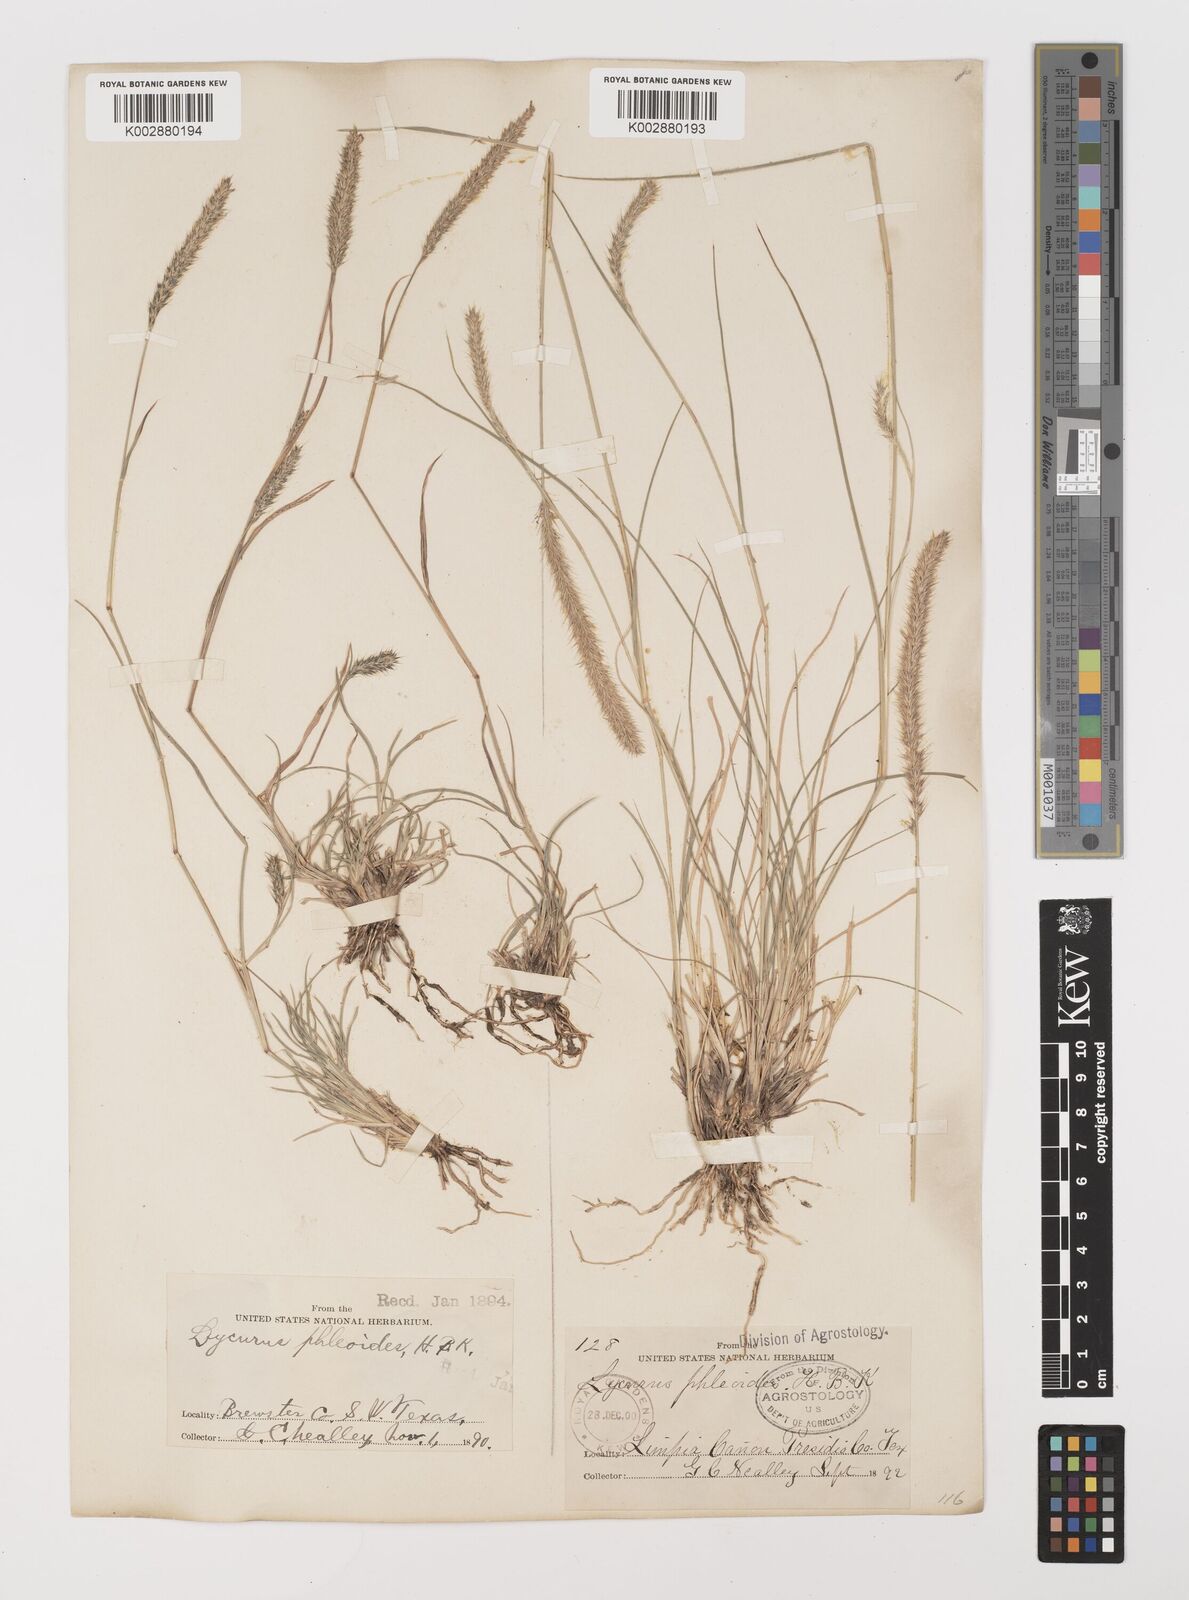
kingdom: Plantae
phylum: Tracheophyta
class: Liliopsida
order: Poales
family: Poaceae
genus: Muhlenbergia
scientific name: Muhlenbergia alopecuroides
